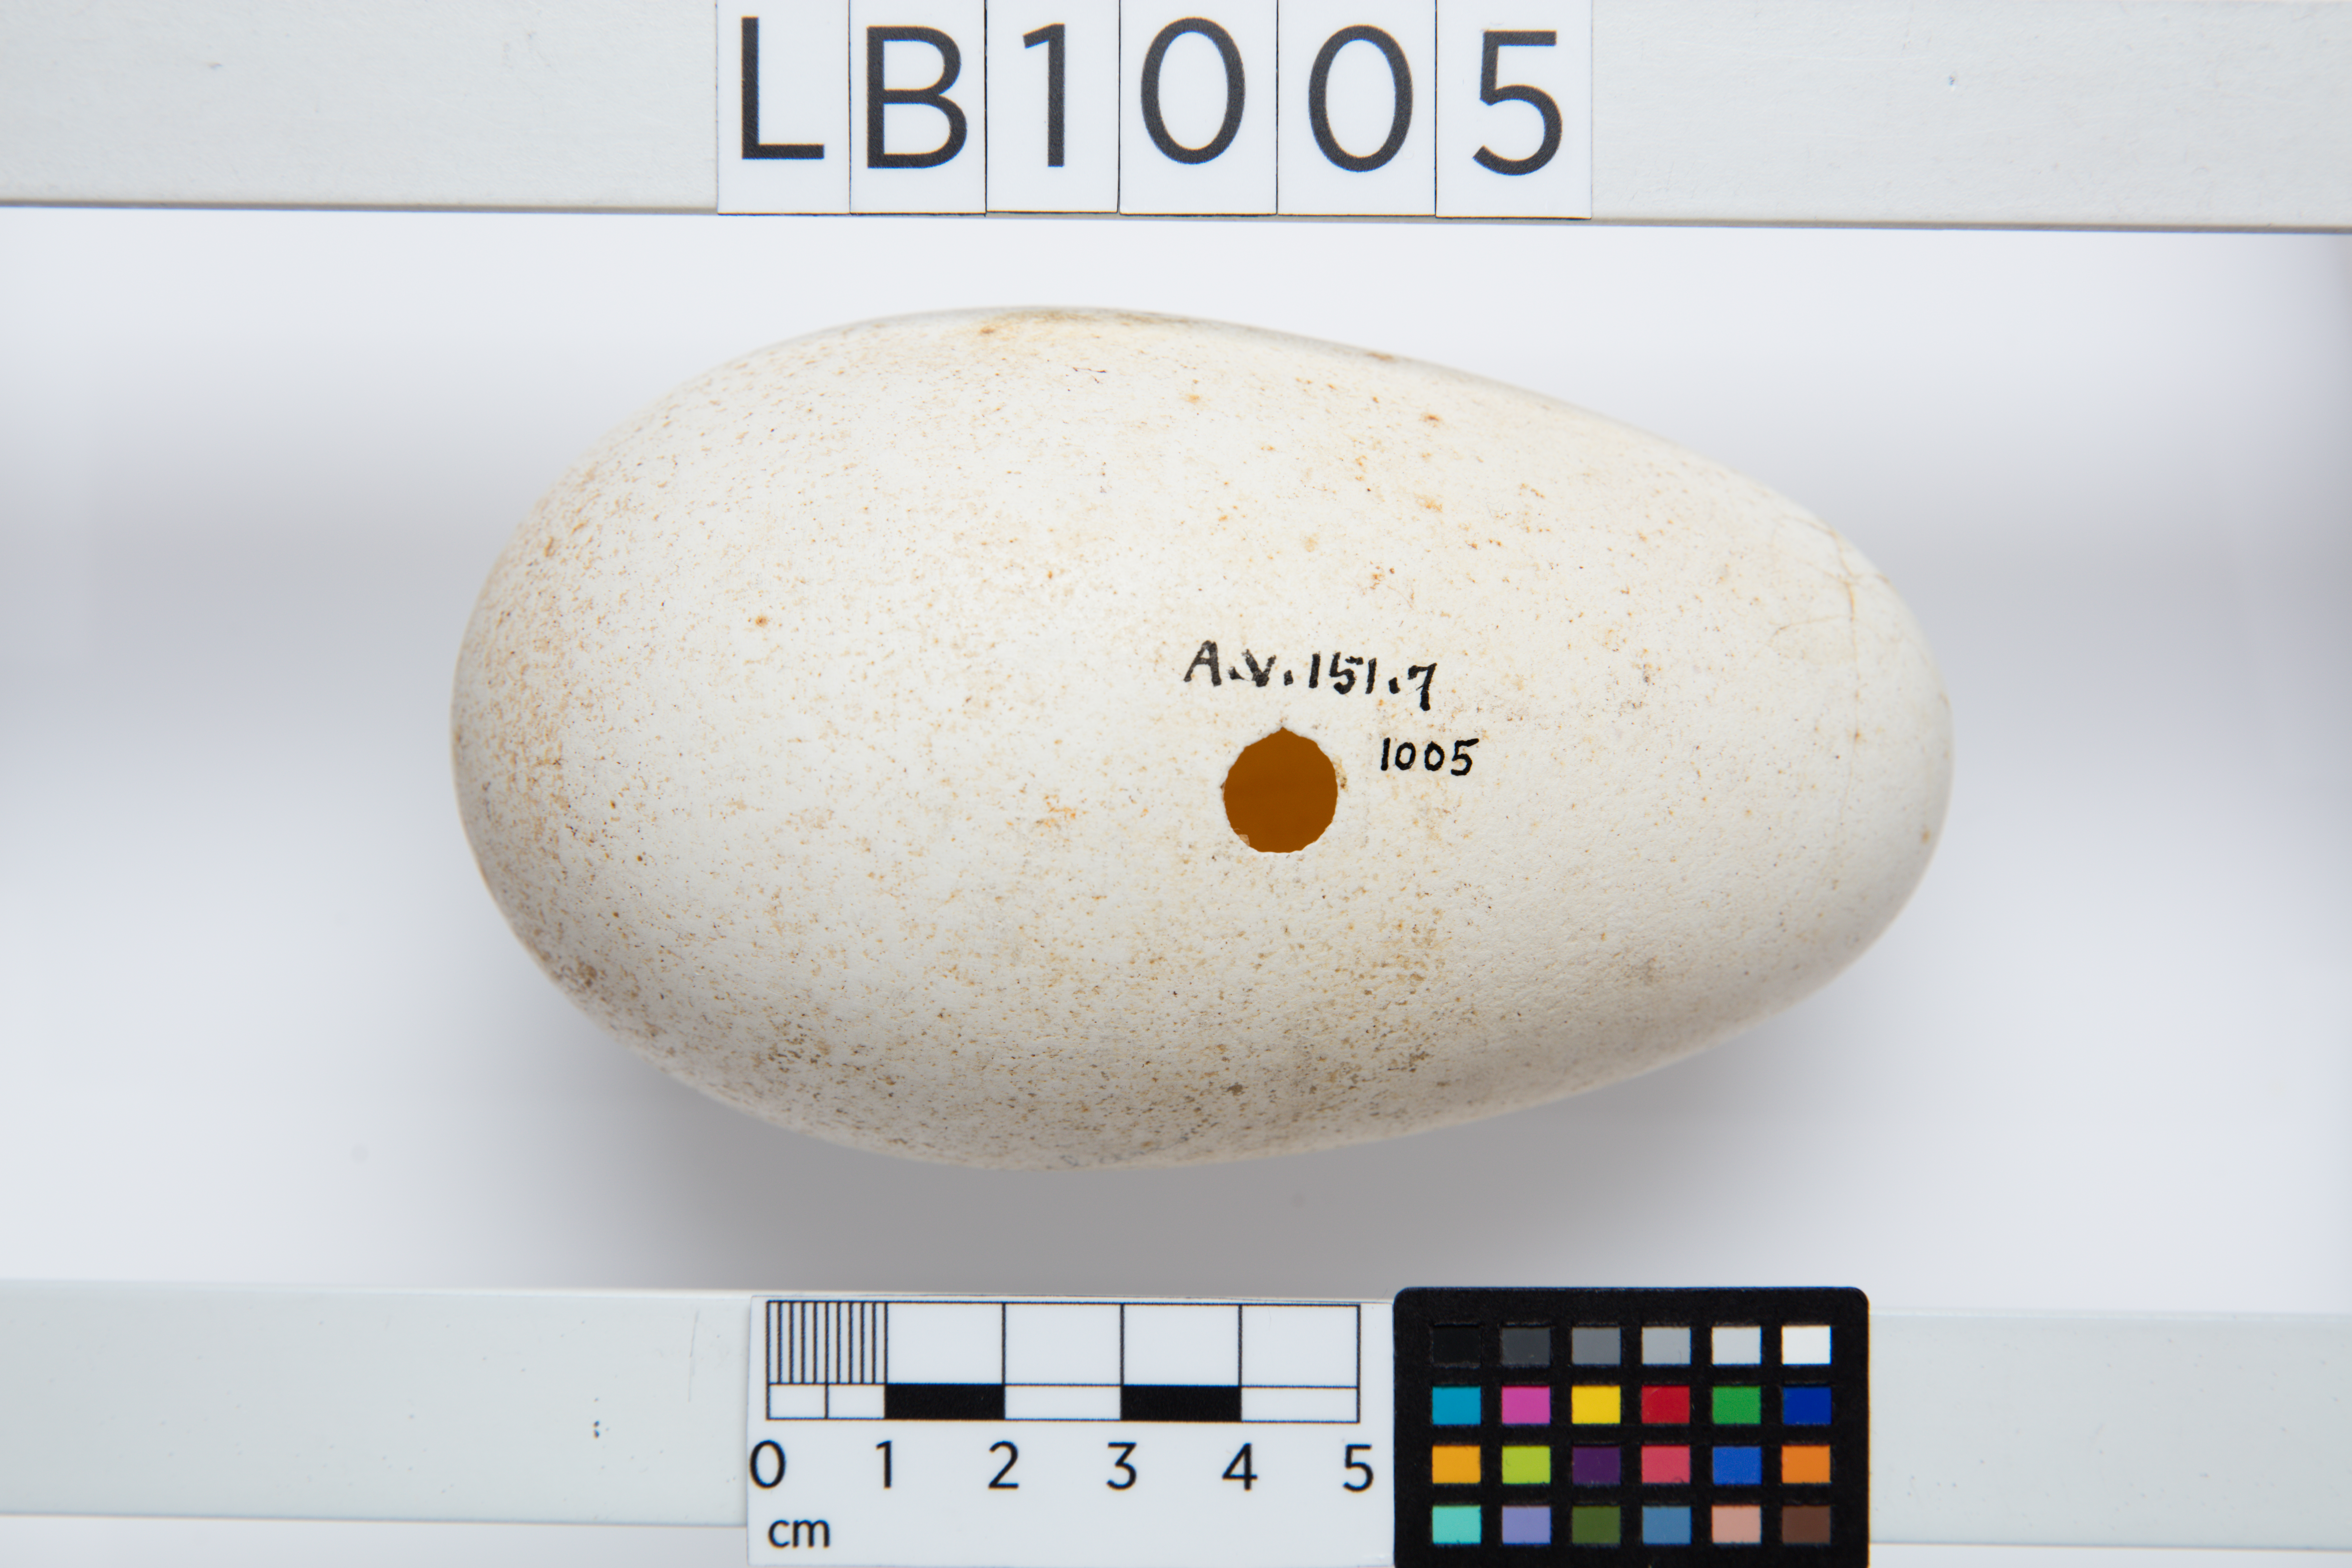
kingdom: Animalia
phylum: Chordata
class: Aves
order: Procellariiformes
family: Diomedeidae
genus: Diomedea
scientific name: Diomedea epomophora
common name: Southern royal albatross
